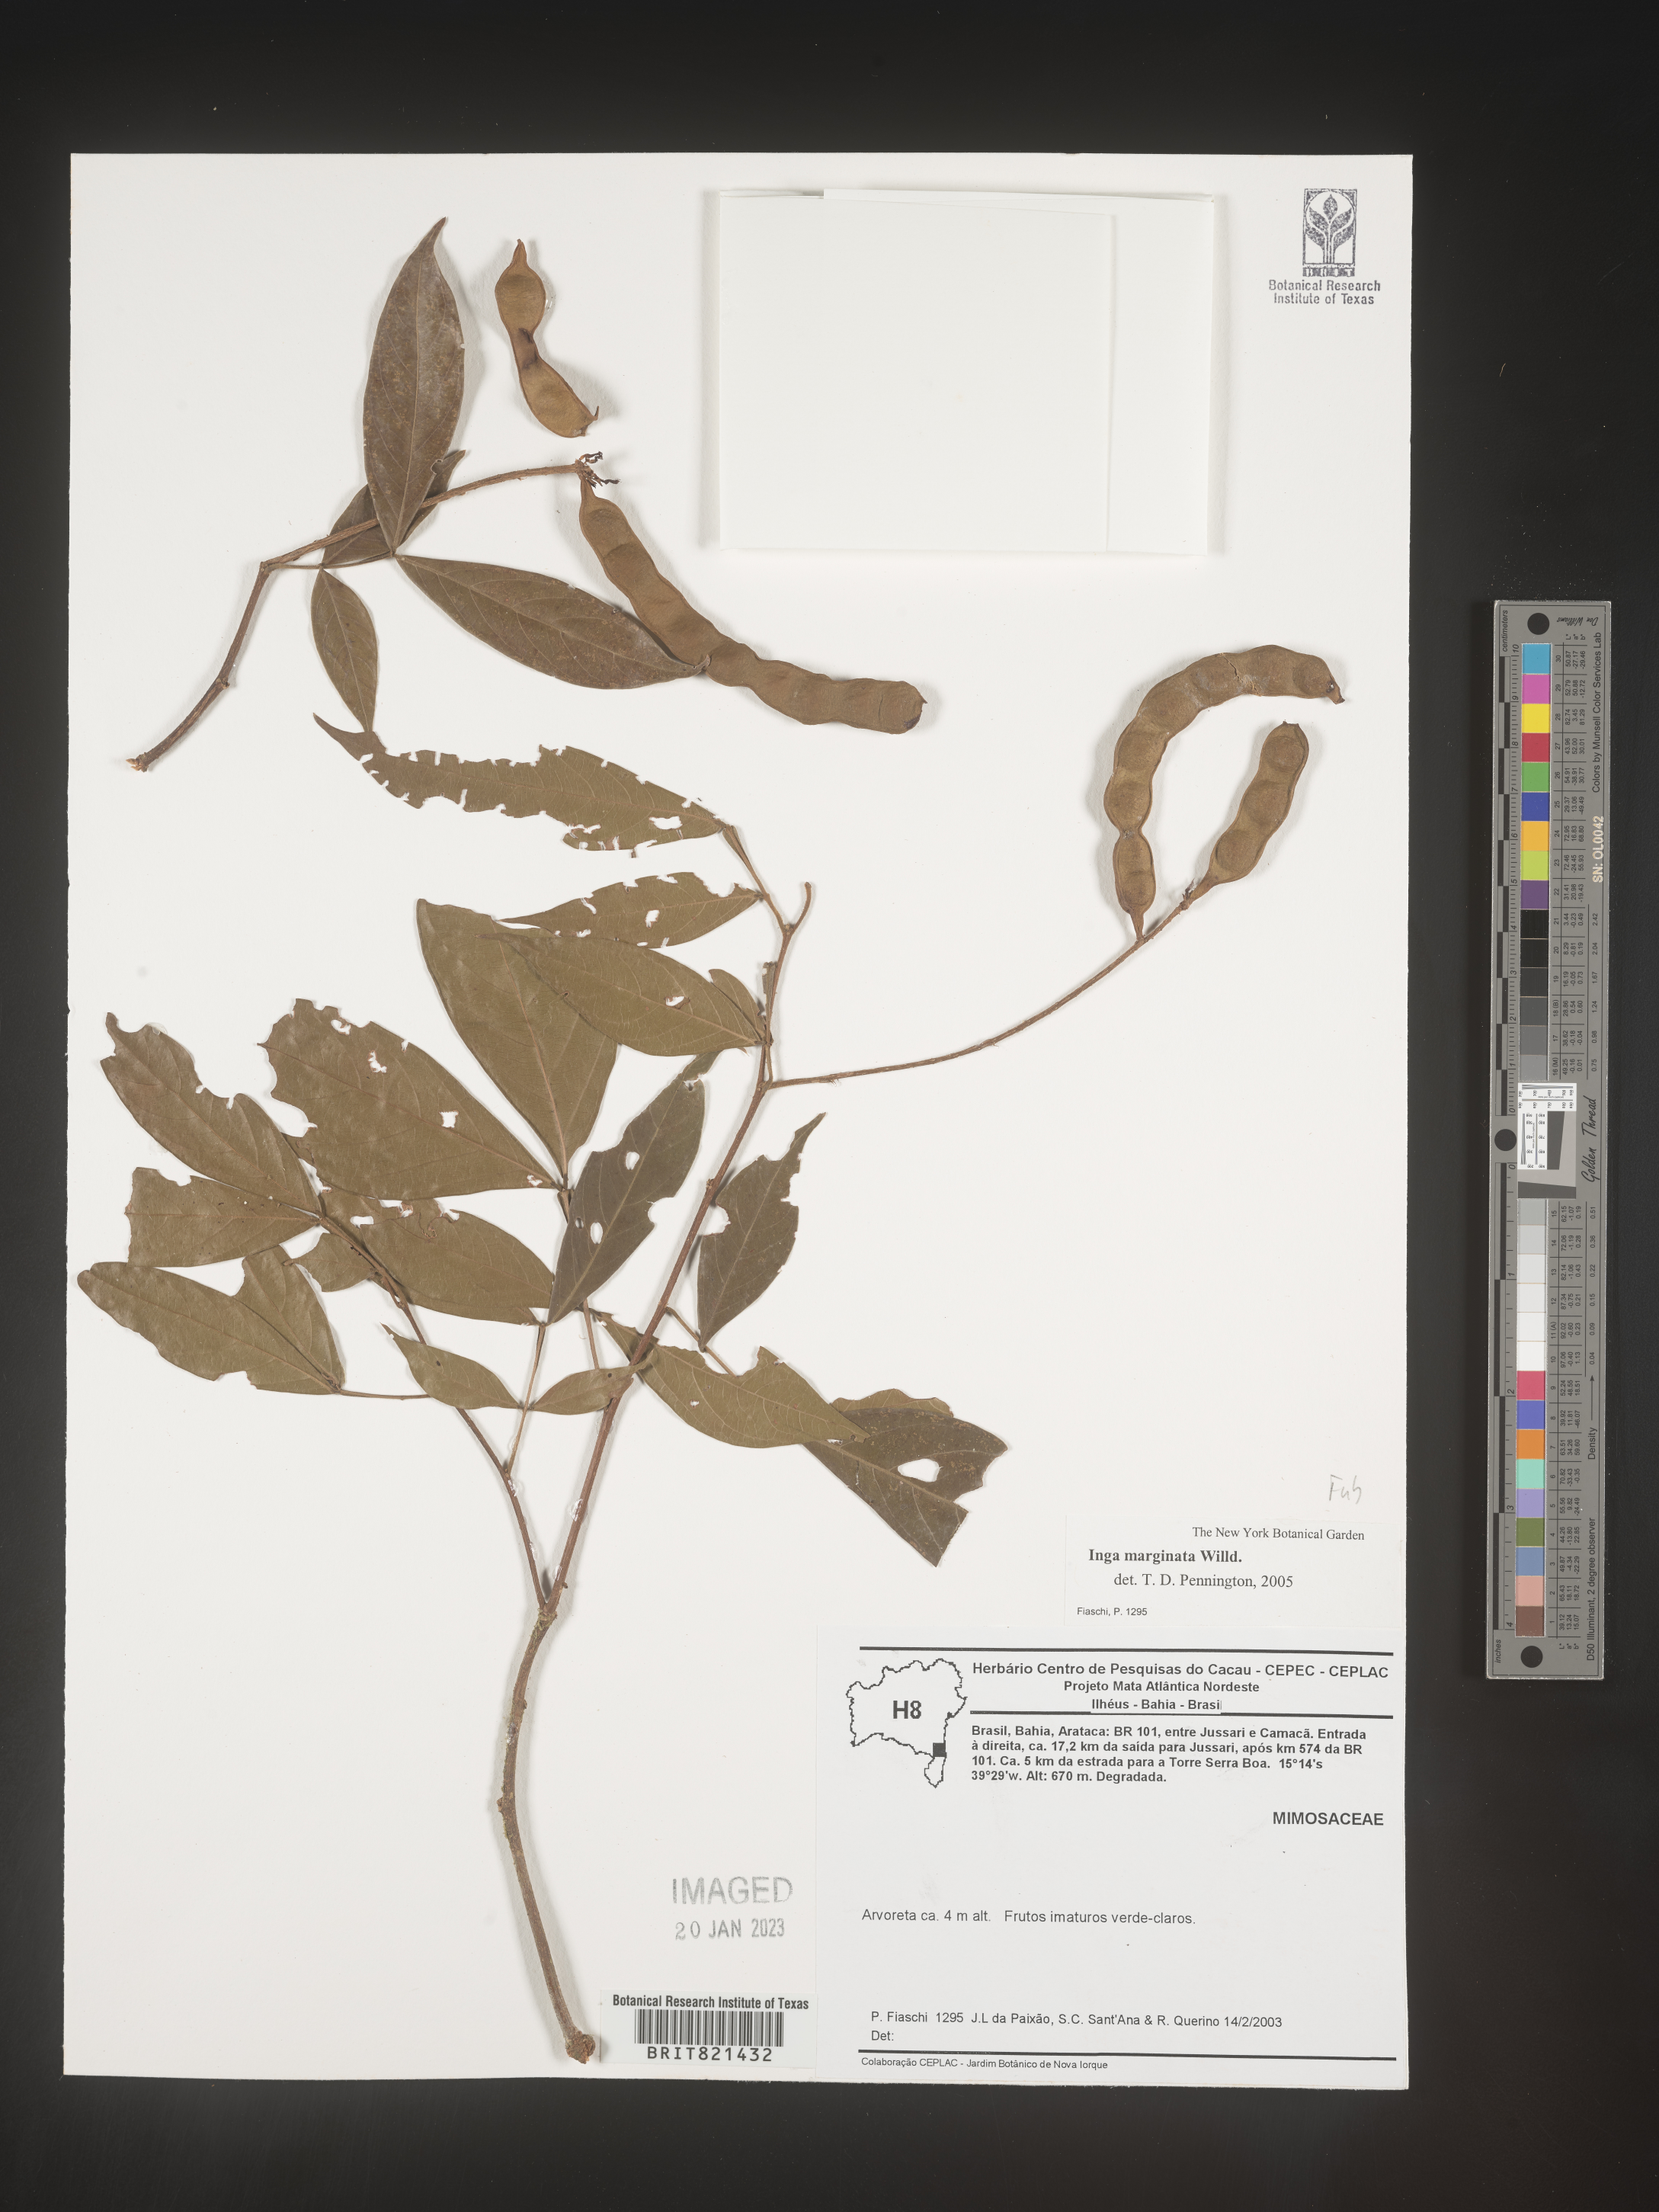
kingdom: Plantae
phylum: Tracheophyta
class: Magnoliopsida
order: Fabales
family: Fabaceae
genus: Inga
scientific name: Inga
